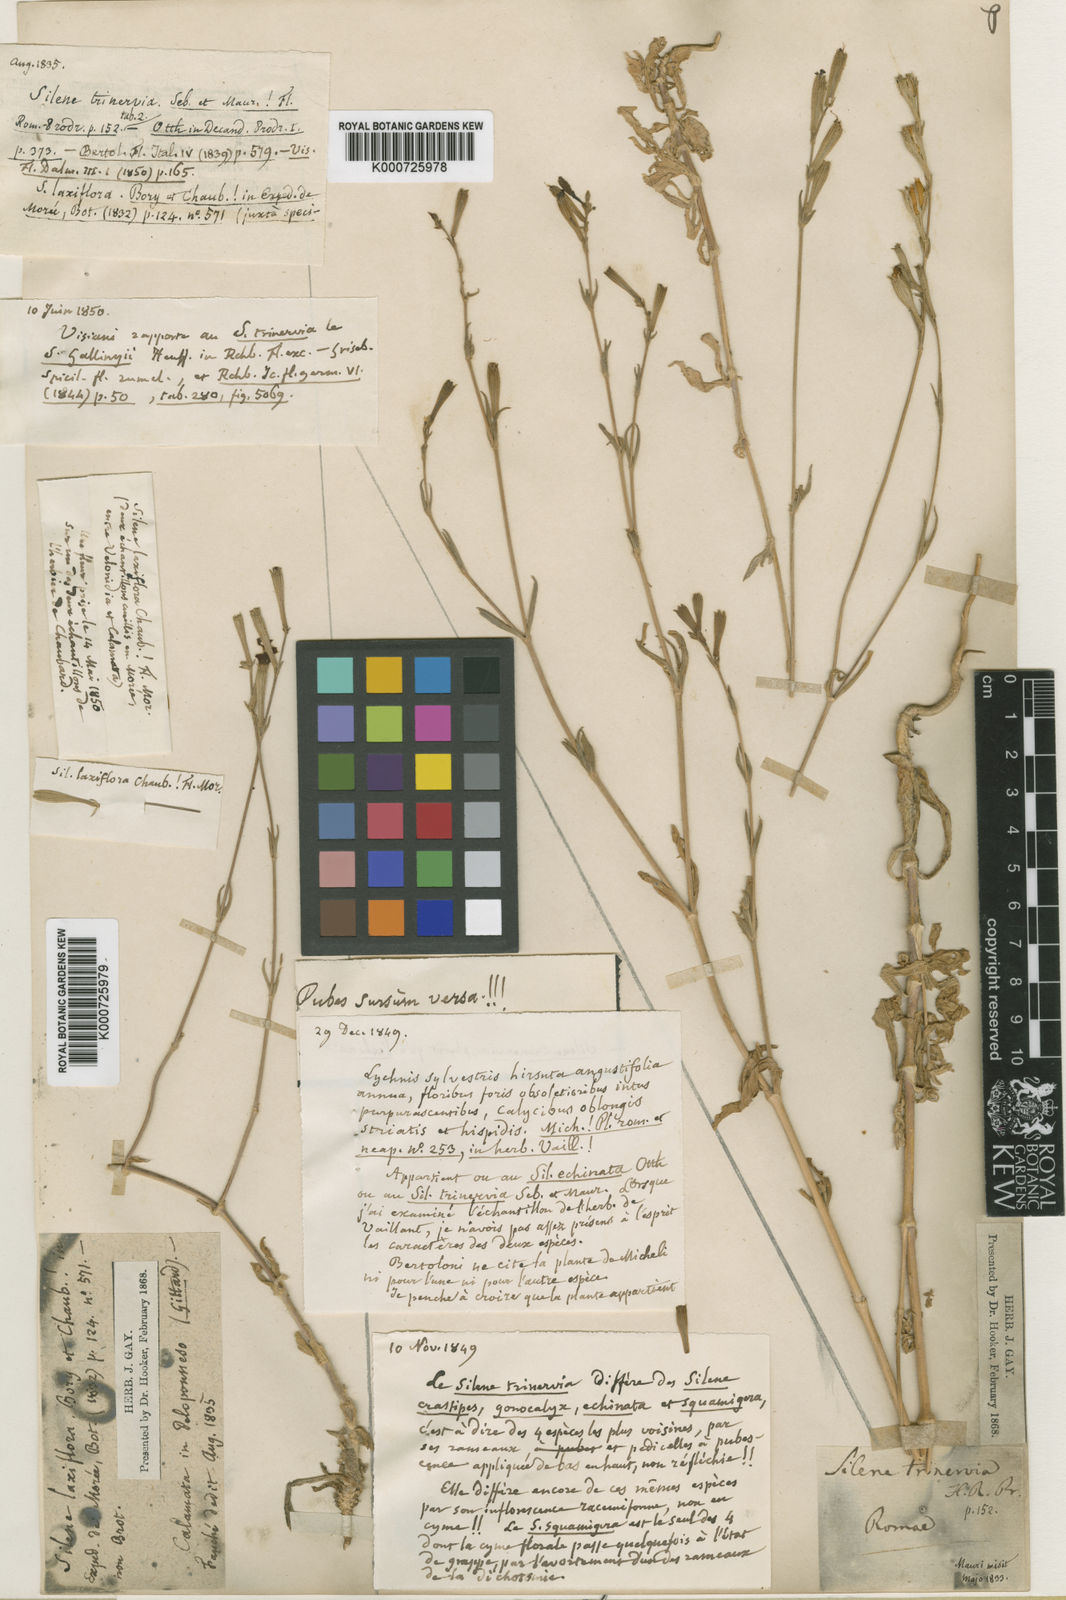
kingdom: Plantae
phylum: Tracheophyta
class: Magnoliopsida
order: Caryophyllales
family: Caryophyllaceae
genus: Silene
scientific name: Silene gallinyi
